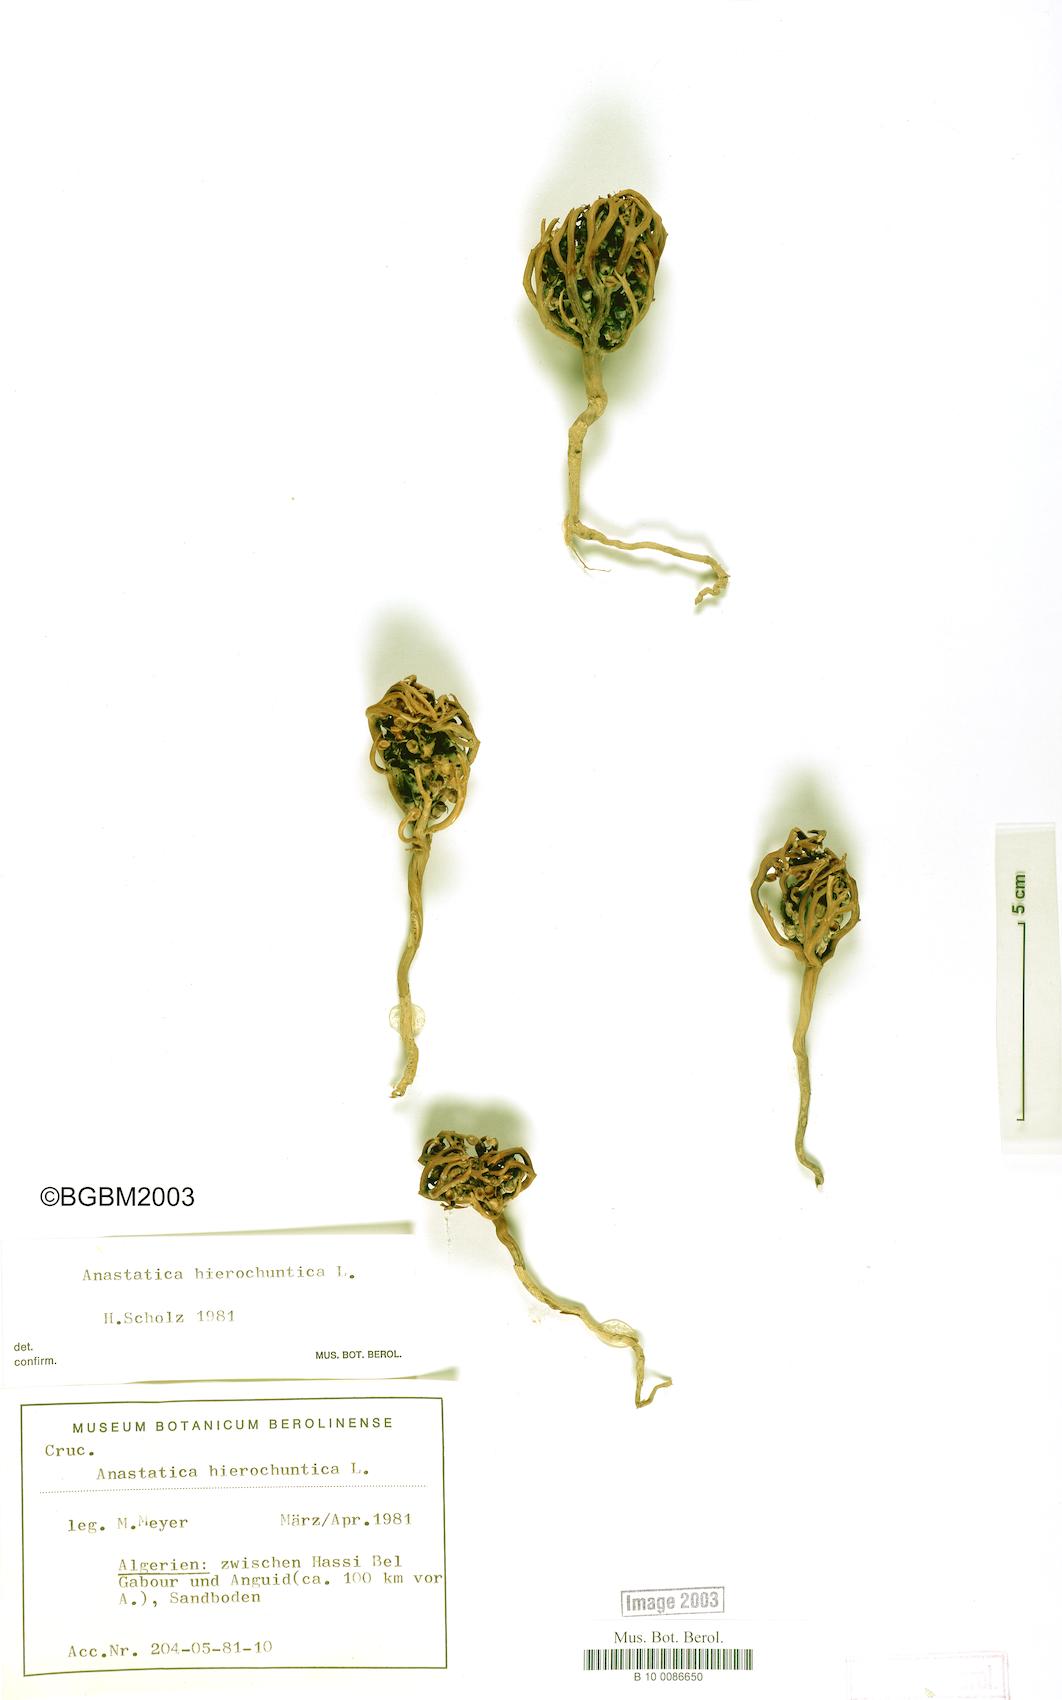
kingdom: Plantae
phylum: Tracheophyta
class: Magnoliopsida
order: Brassicales
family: Brassicaceae
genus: Anastatica
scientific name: Anastatica hierochuntica
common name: Rose-of-jericho
